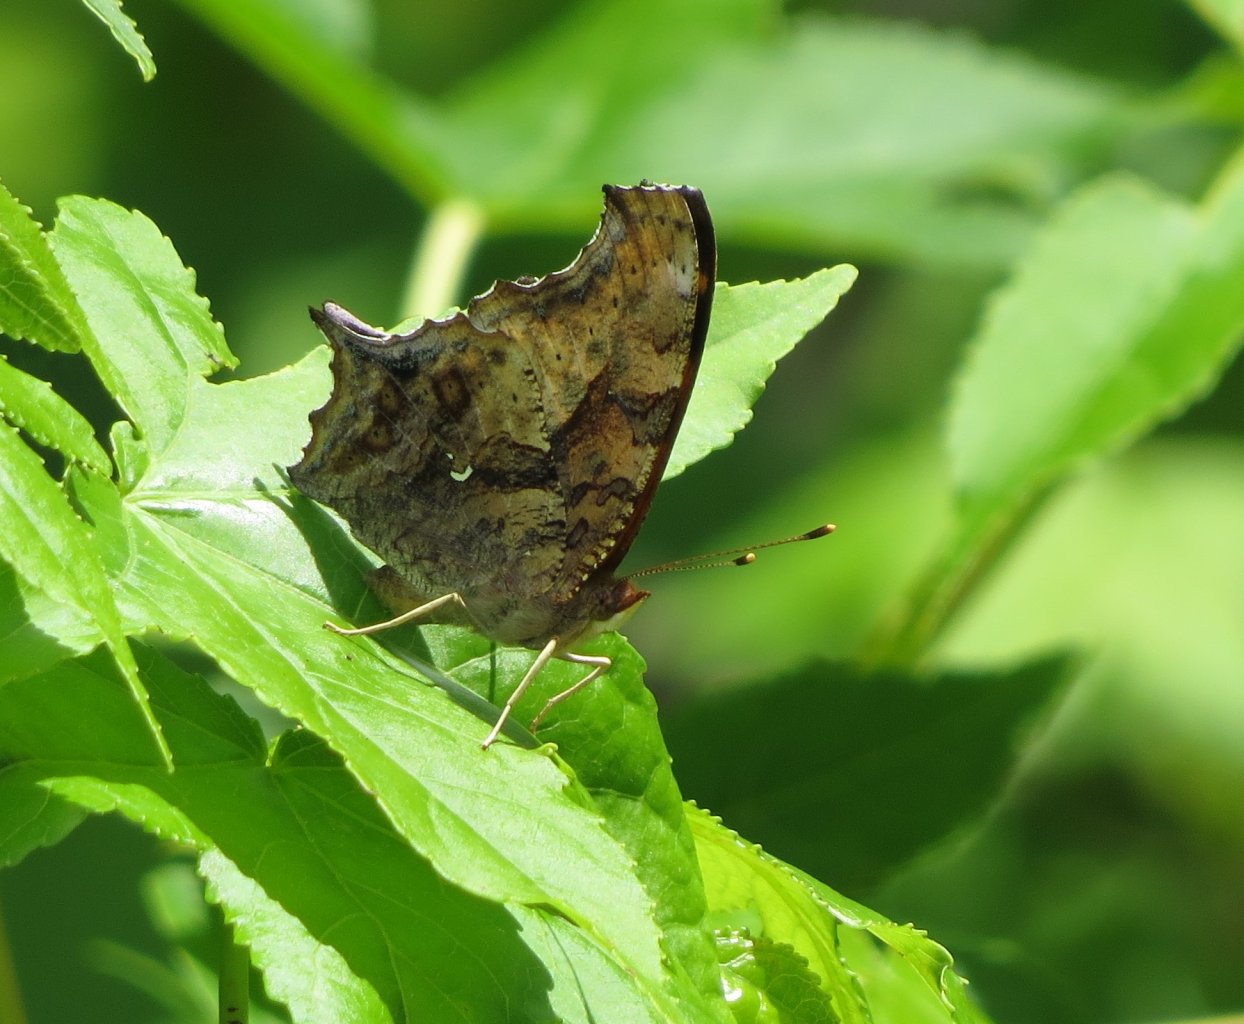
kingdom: Animalia
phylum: Arthropoda
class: Insecta
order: Lepidoptera
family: Nymphalidae
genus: Polygonia
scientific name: Polygonia interrogationis
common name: Question Mark
